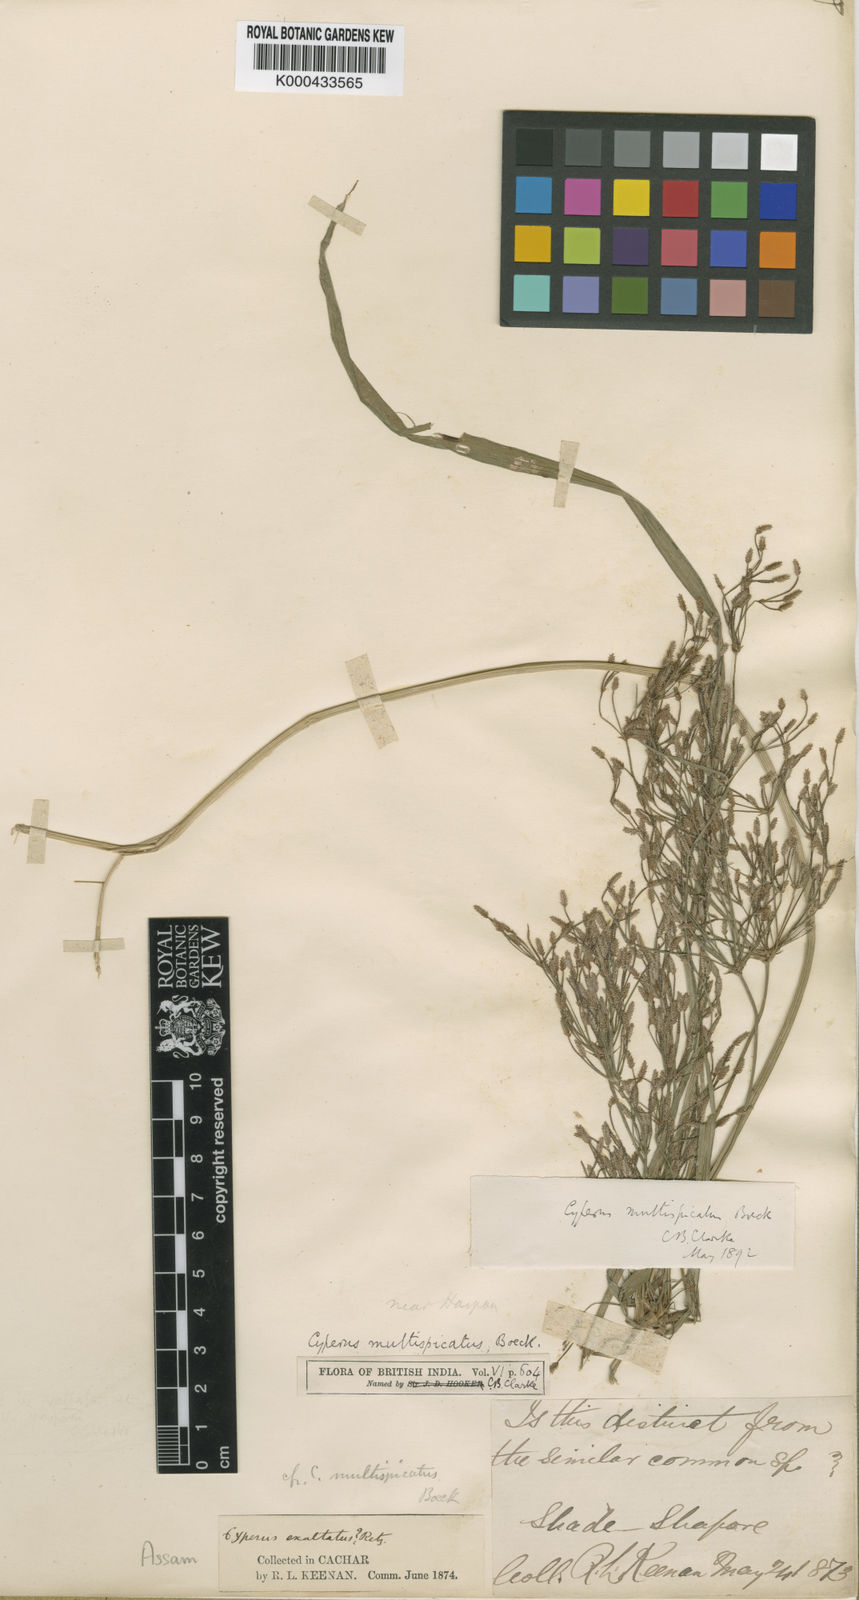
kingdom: Plantae
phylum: Tracheophyta
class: Liliopsida
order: Poales
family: Cyperaceae
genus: Cyperus
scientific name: Cyperus multispicatus
